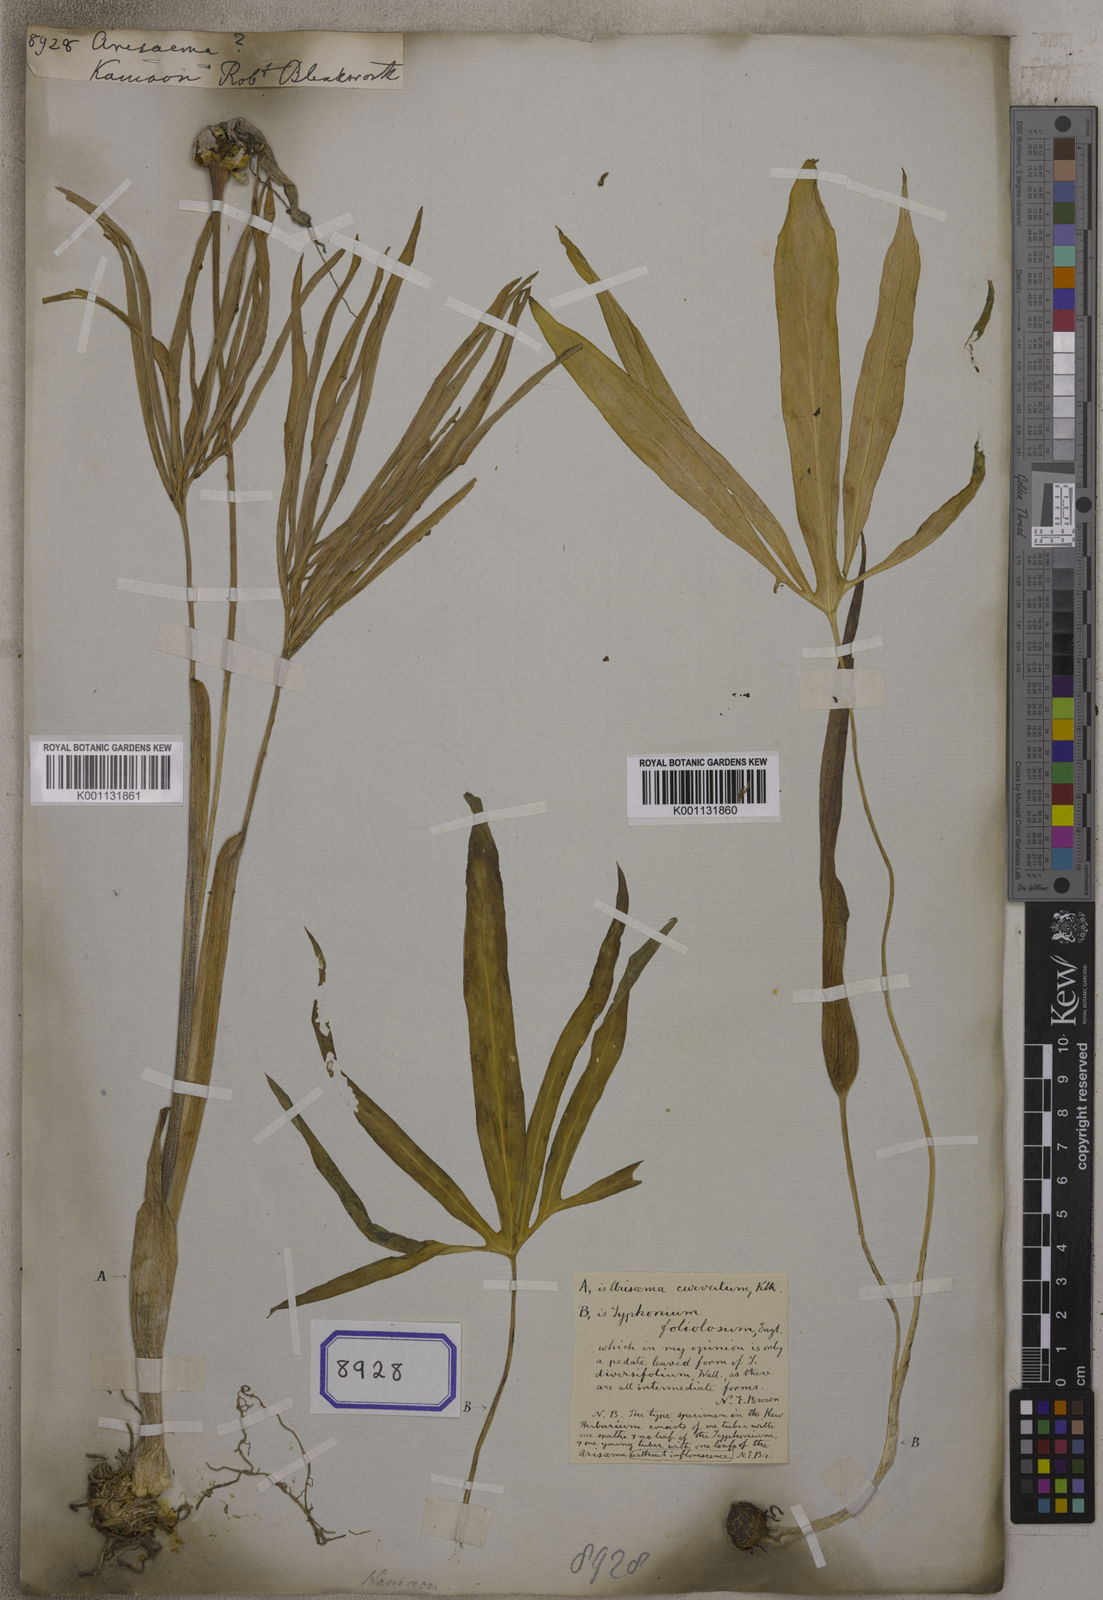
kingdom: Plantae
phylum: Tracheophyta
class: Liliopsida
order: Alismatales
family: Araceae
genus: Arisaema
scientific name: Arisaema
